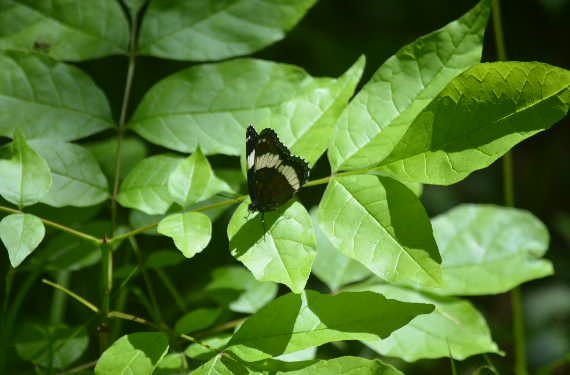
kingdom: Animalia
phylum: Arthropoda
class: Insecta
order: Lepidoptera
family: Nymphalidae
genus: Limenitis
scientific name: Limenitis arthemis
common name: Red-spotted Admiral
